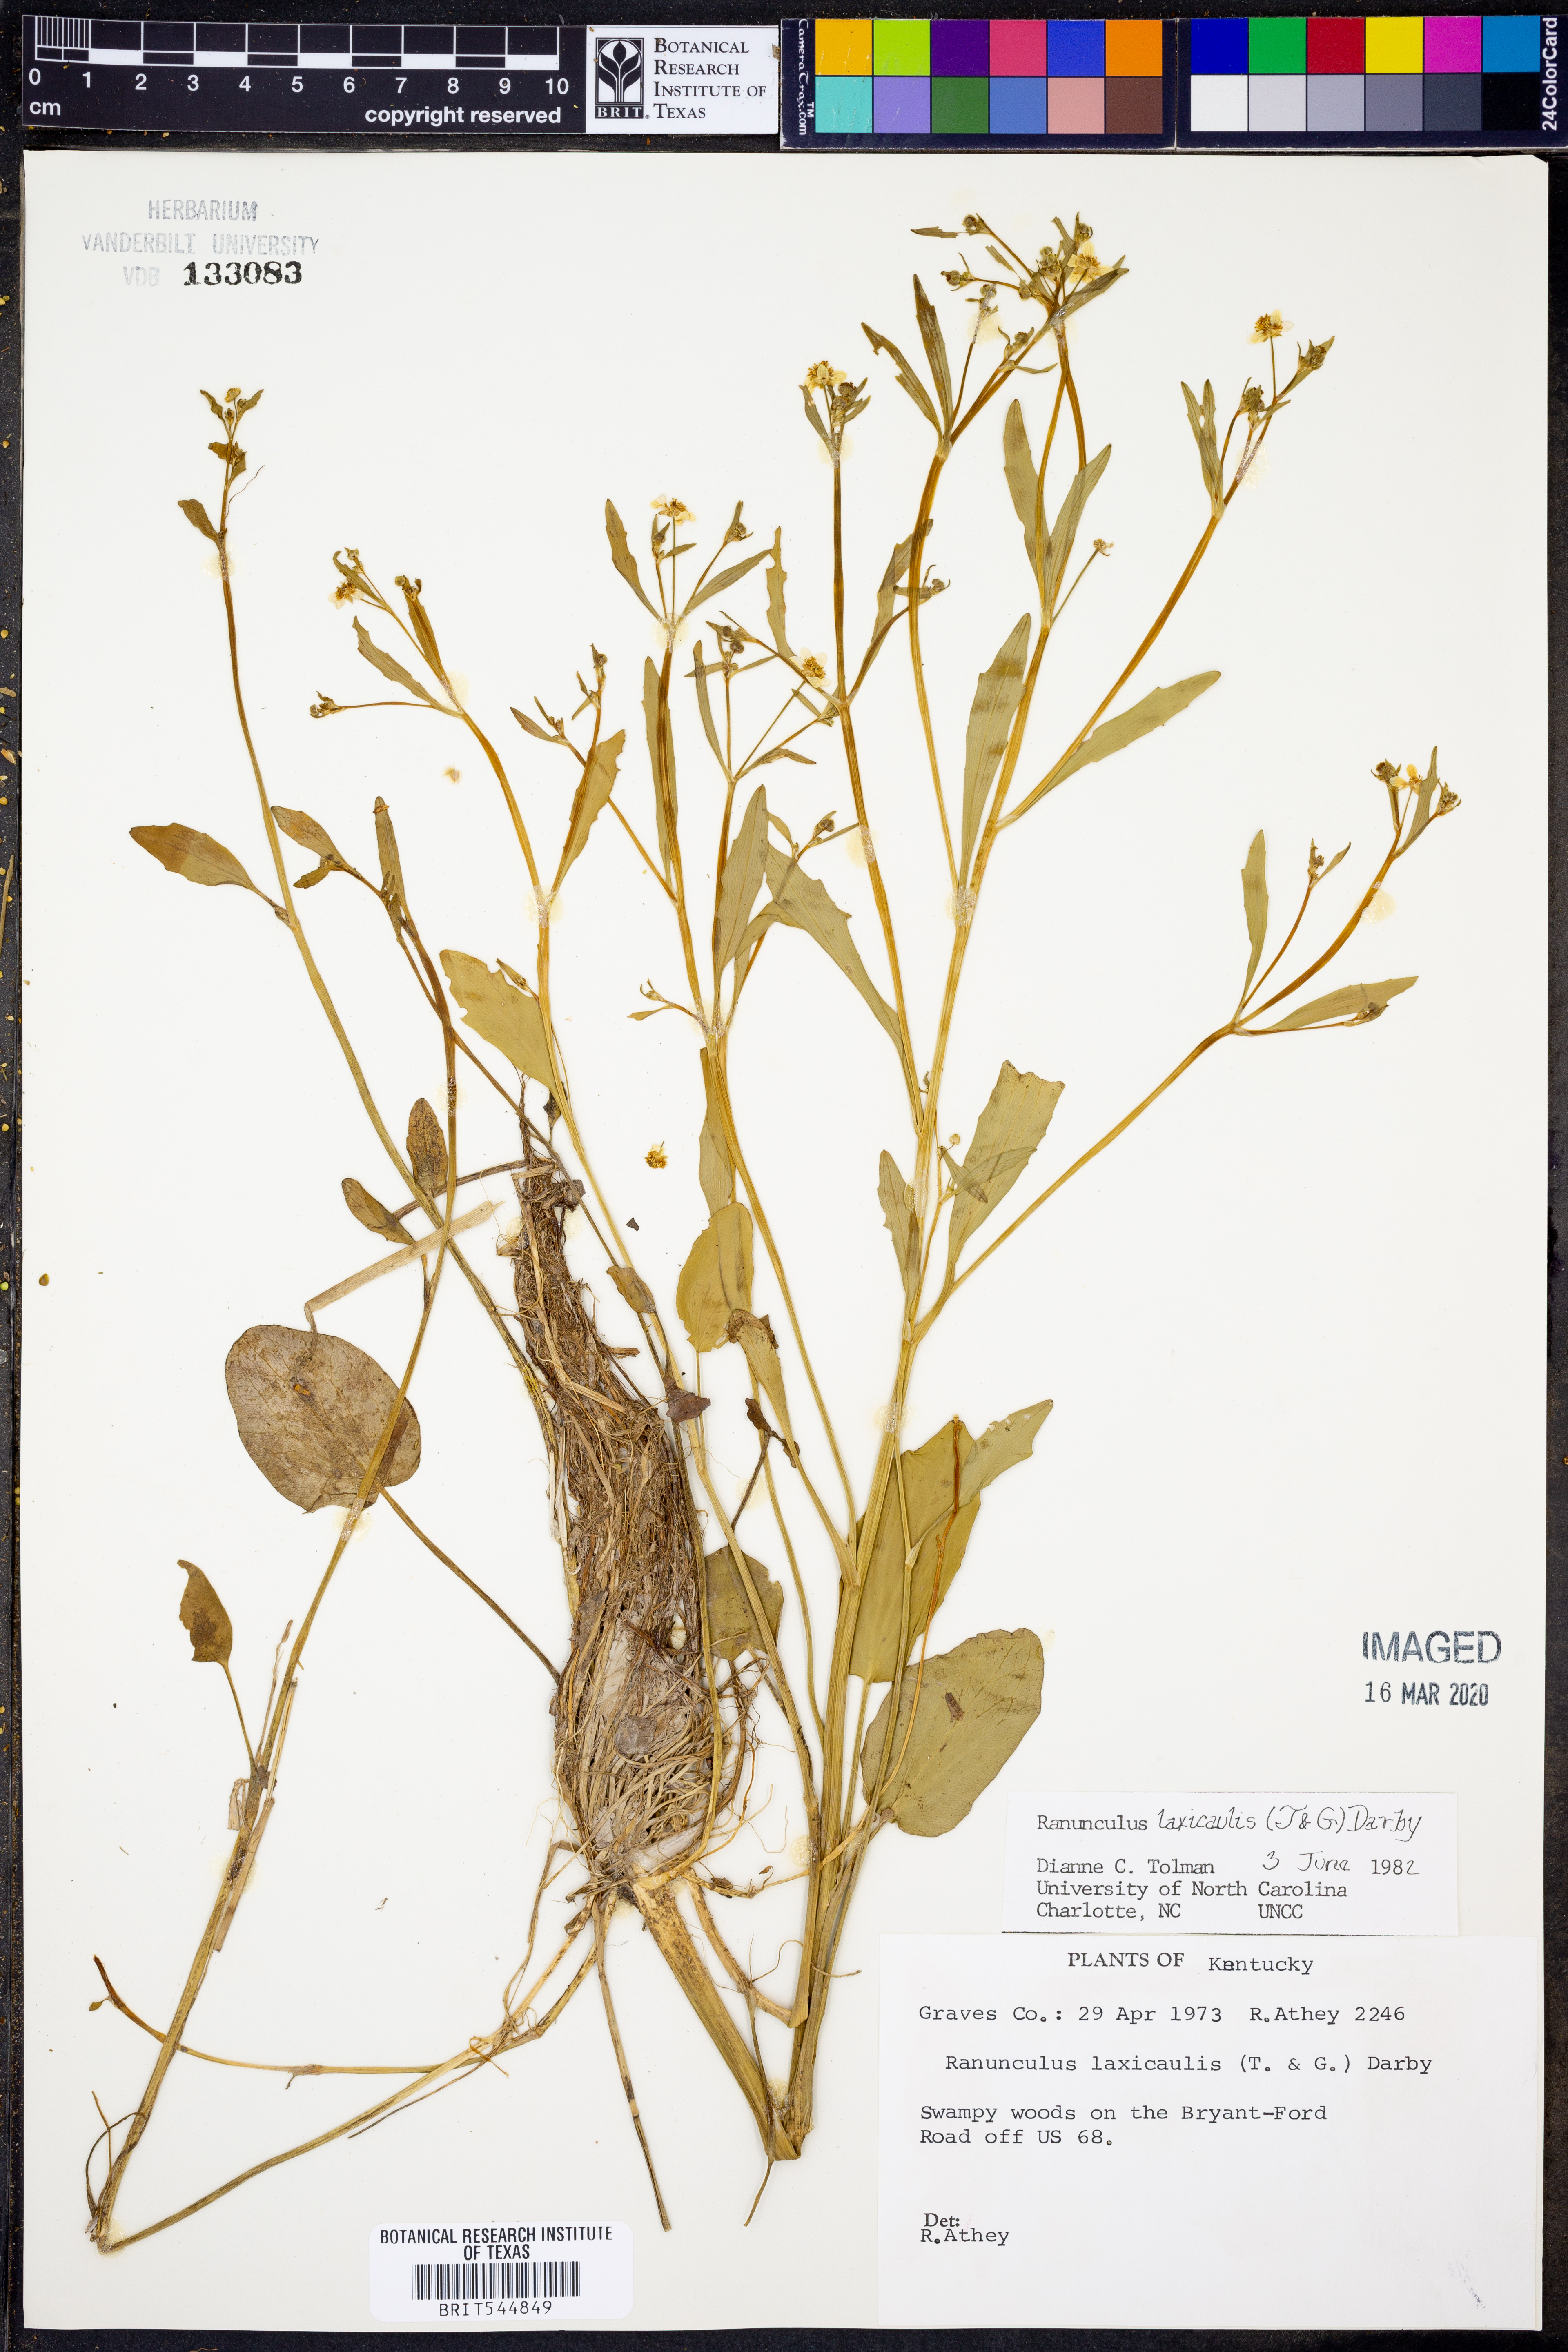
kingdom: Plantae
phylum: Tracheophyta
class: Magnoliopsida
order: Ranunculales
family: Ranunculaceae
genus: Ranunculus
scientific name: Ranunculus laxicaulis
